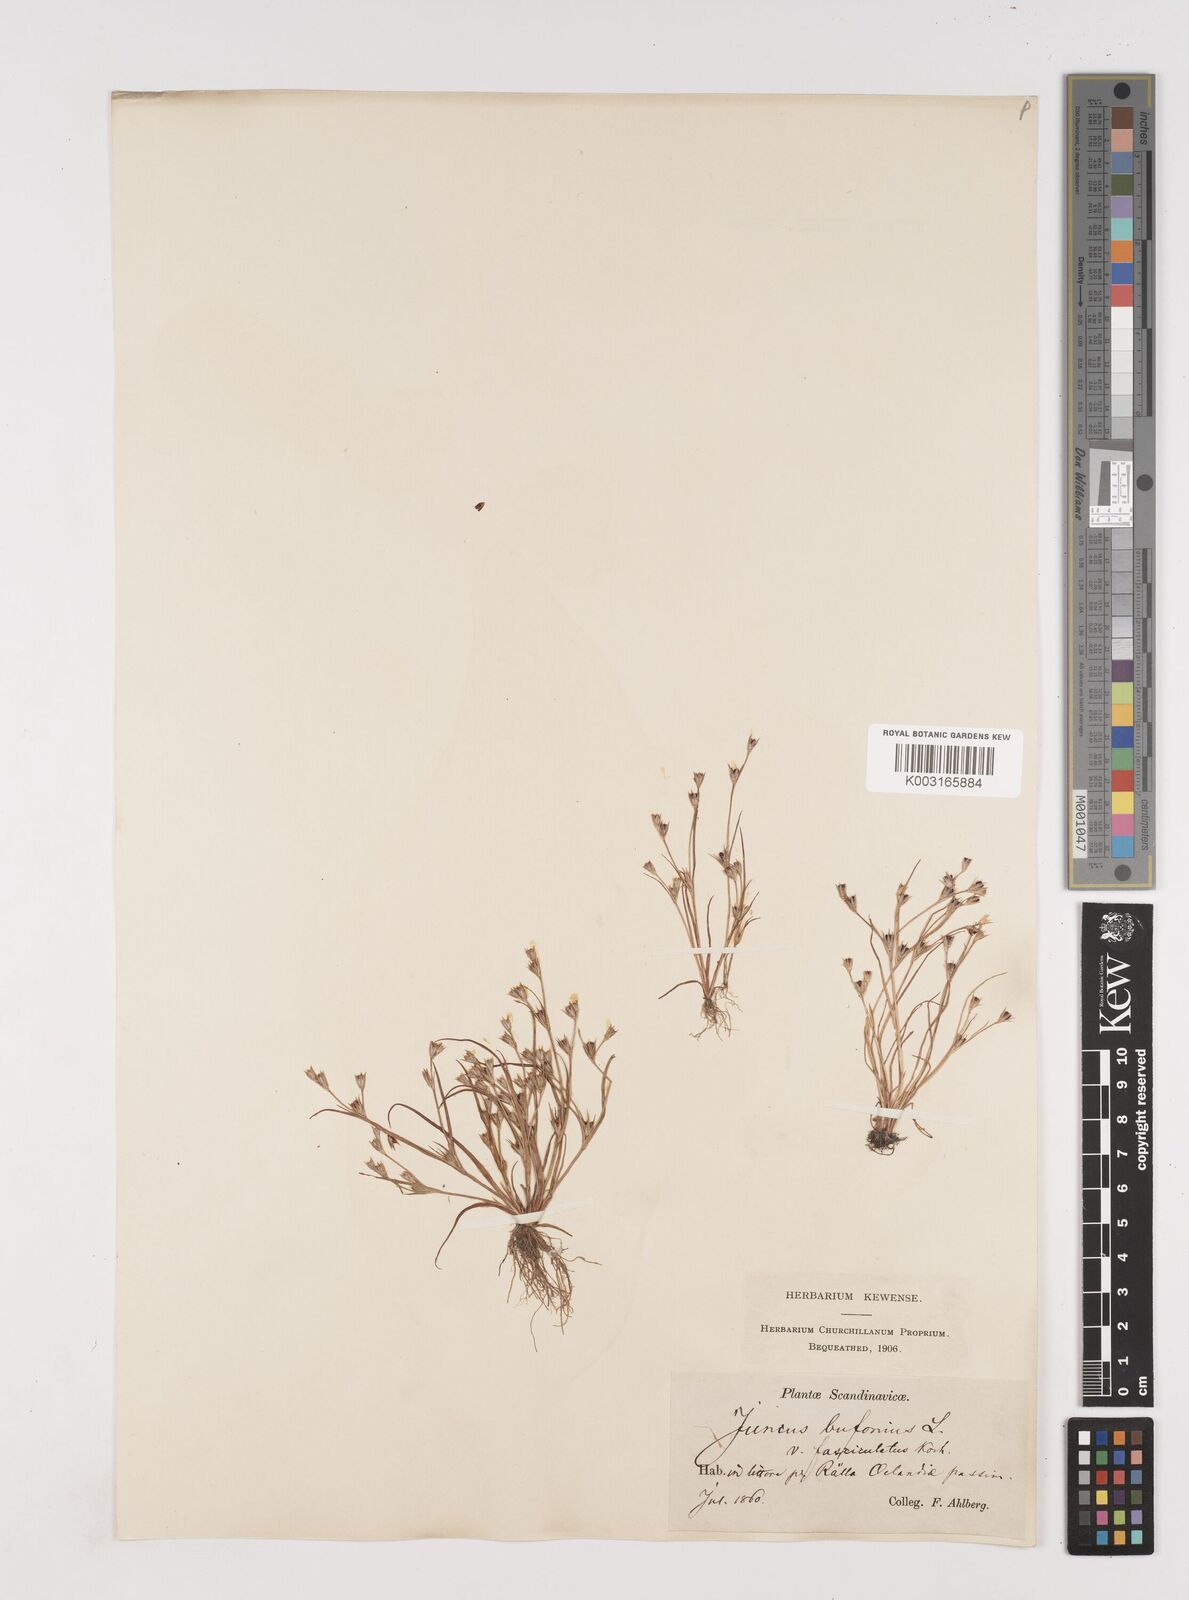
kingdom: Plantae
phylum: Tracheophyta
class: Liliopsida
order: Poales
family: Juncaceae
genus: Juncus
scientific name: Juncus bufonius
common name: Toad rush
